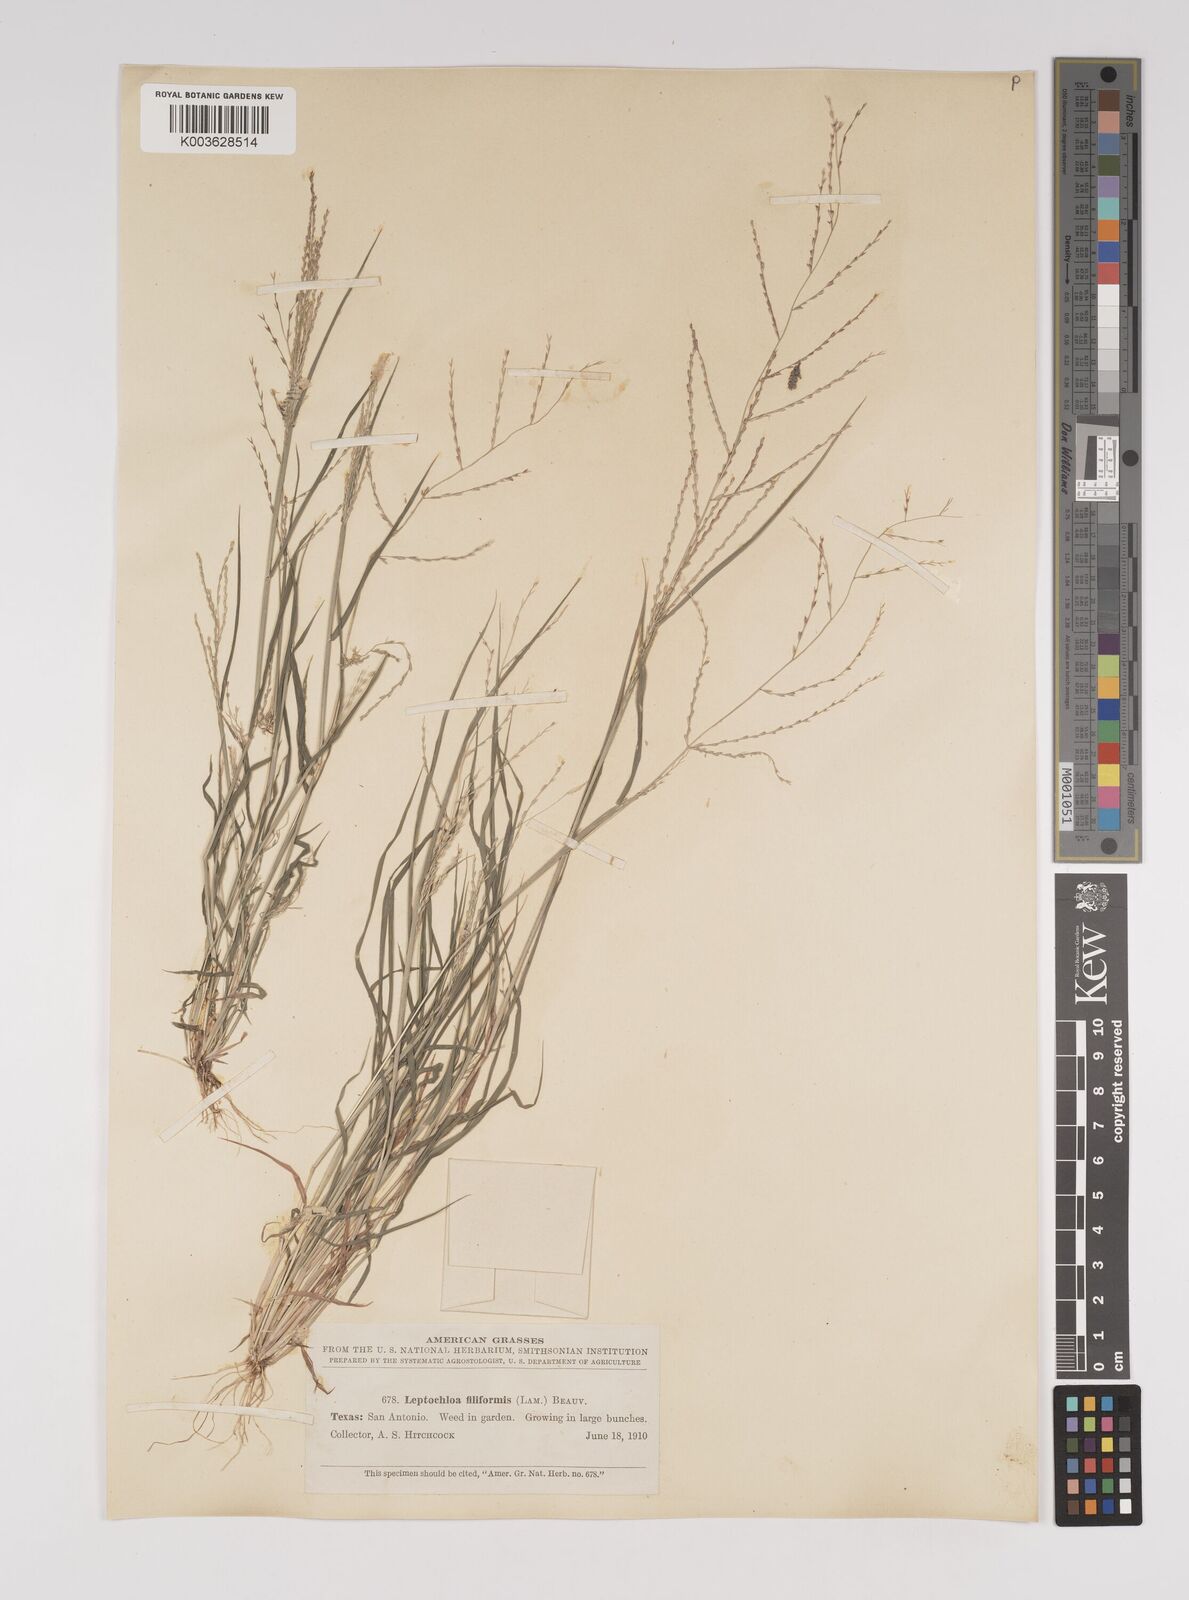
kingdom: Plantae
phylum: Tracheophyta
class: Liliopsida
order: Poales
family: Poaceae
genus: Leptochloa
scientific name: Leptochloa panicea
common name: Mucronate sprangletop
